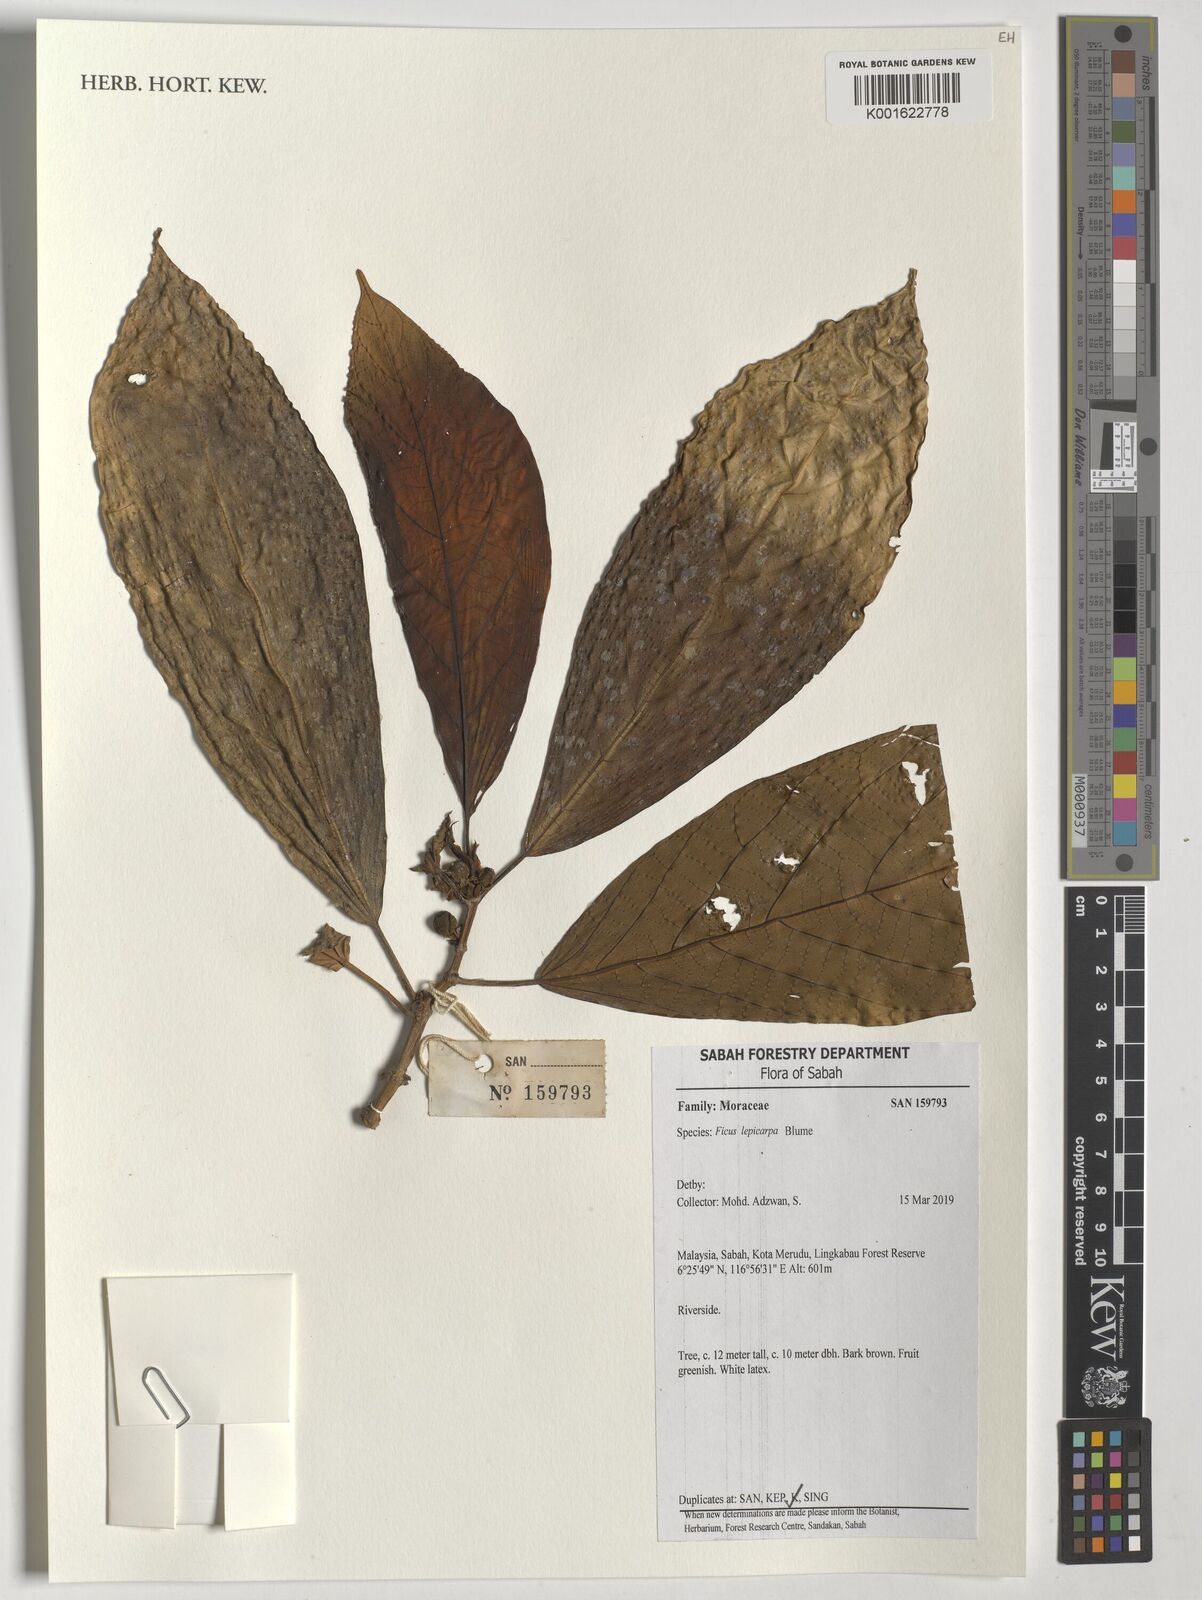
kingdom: Plantae
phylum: Tracheophyta
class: Magnoliopsida
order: Rosales
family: Moraceae
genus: Ficus
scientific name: Ficus lepicarpa
